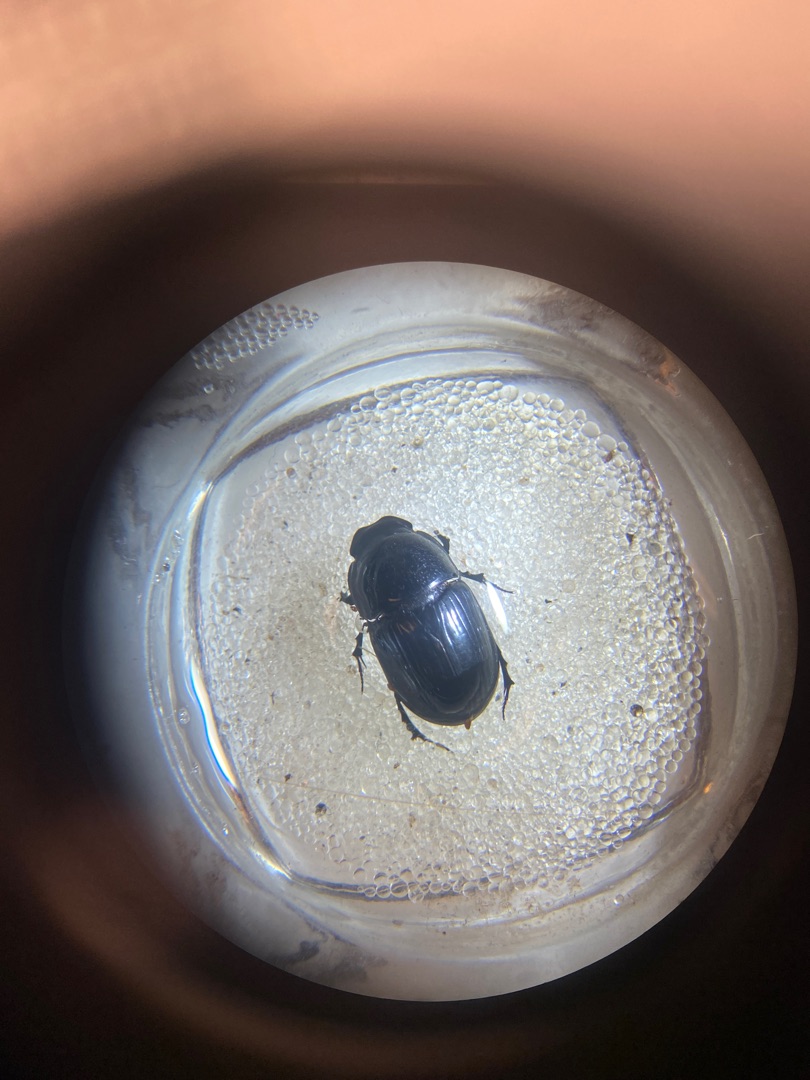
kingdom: Animalia
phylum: Arthropoda
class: Insecta
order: Coleoptera
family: Scarabaeidae
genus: Teuchestes
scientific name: Teuchestes fossor
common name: Stor møgbille
